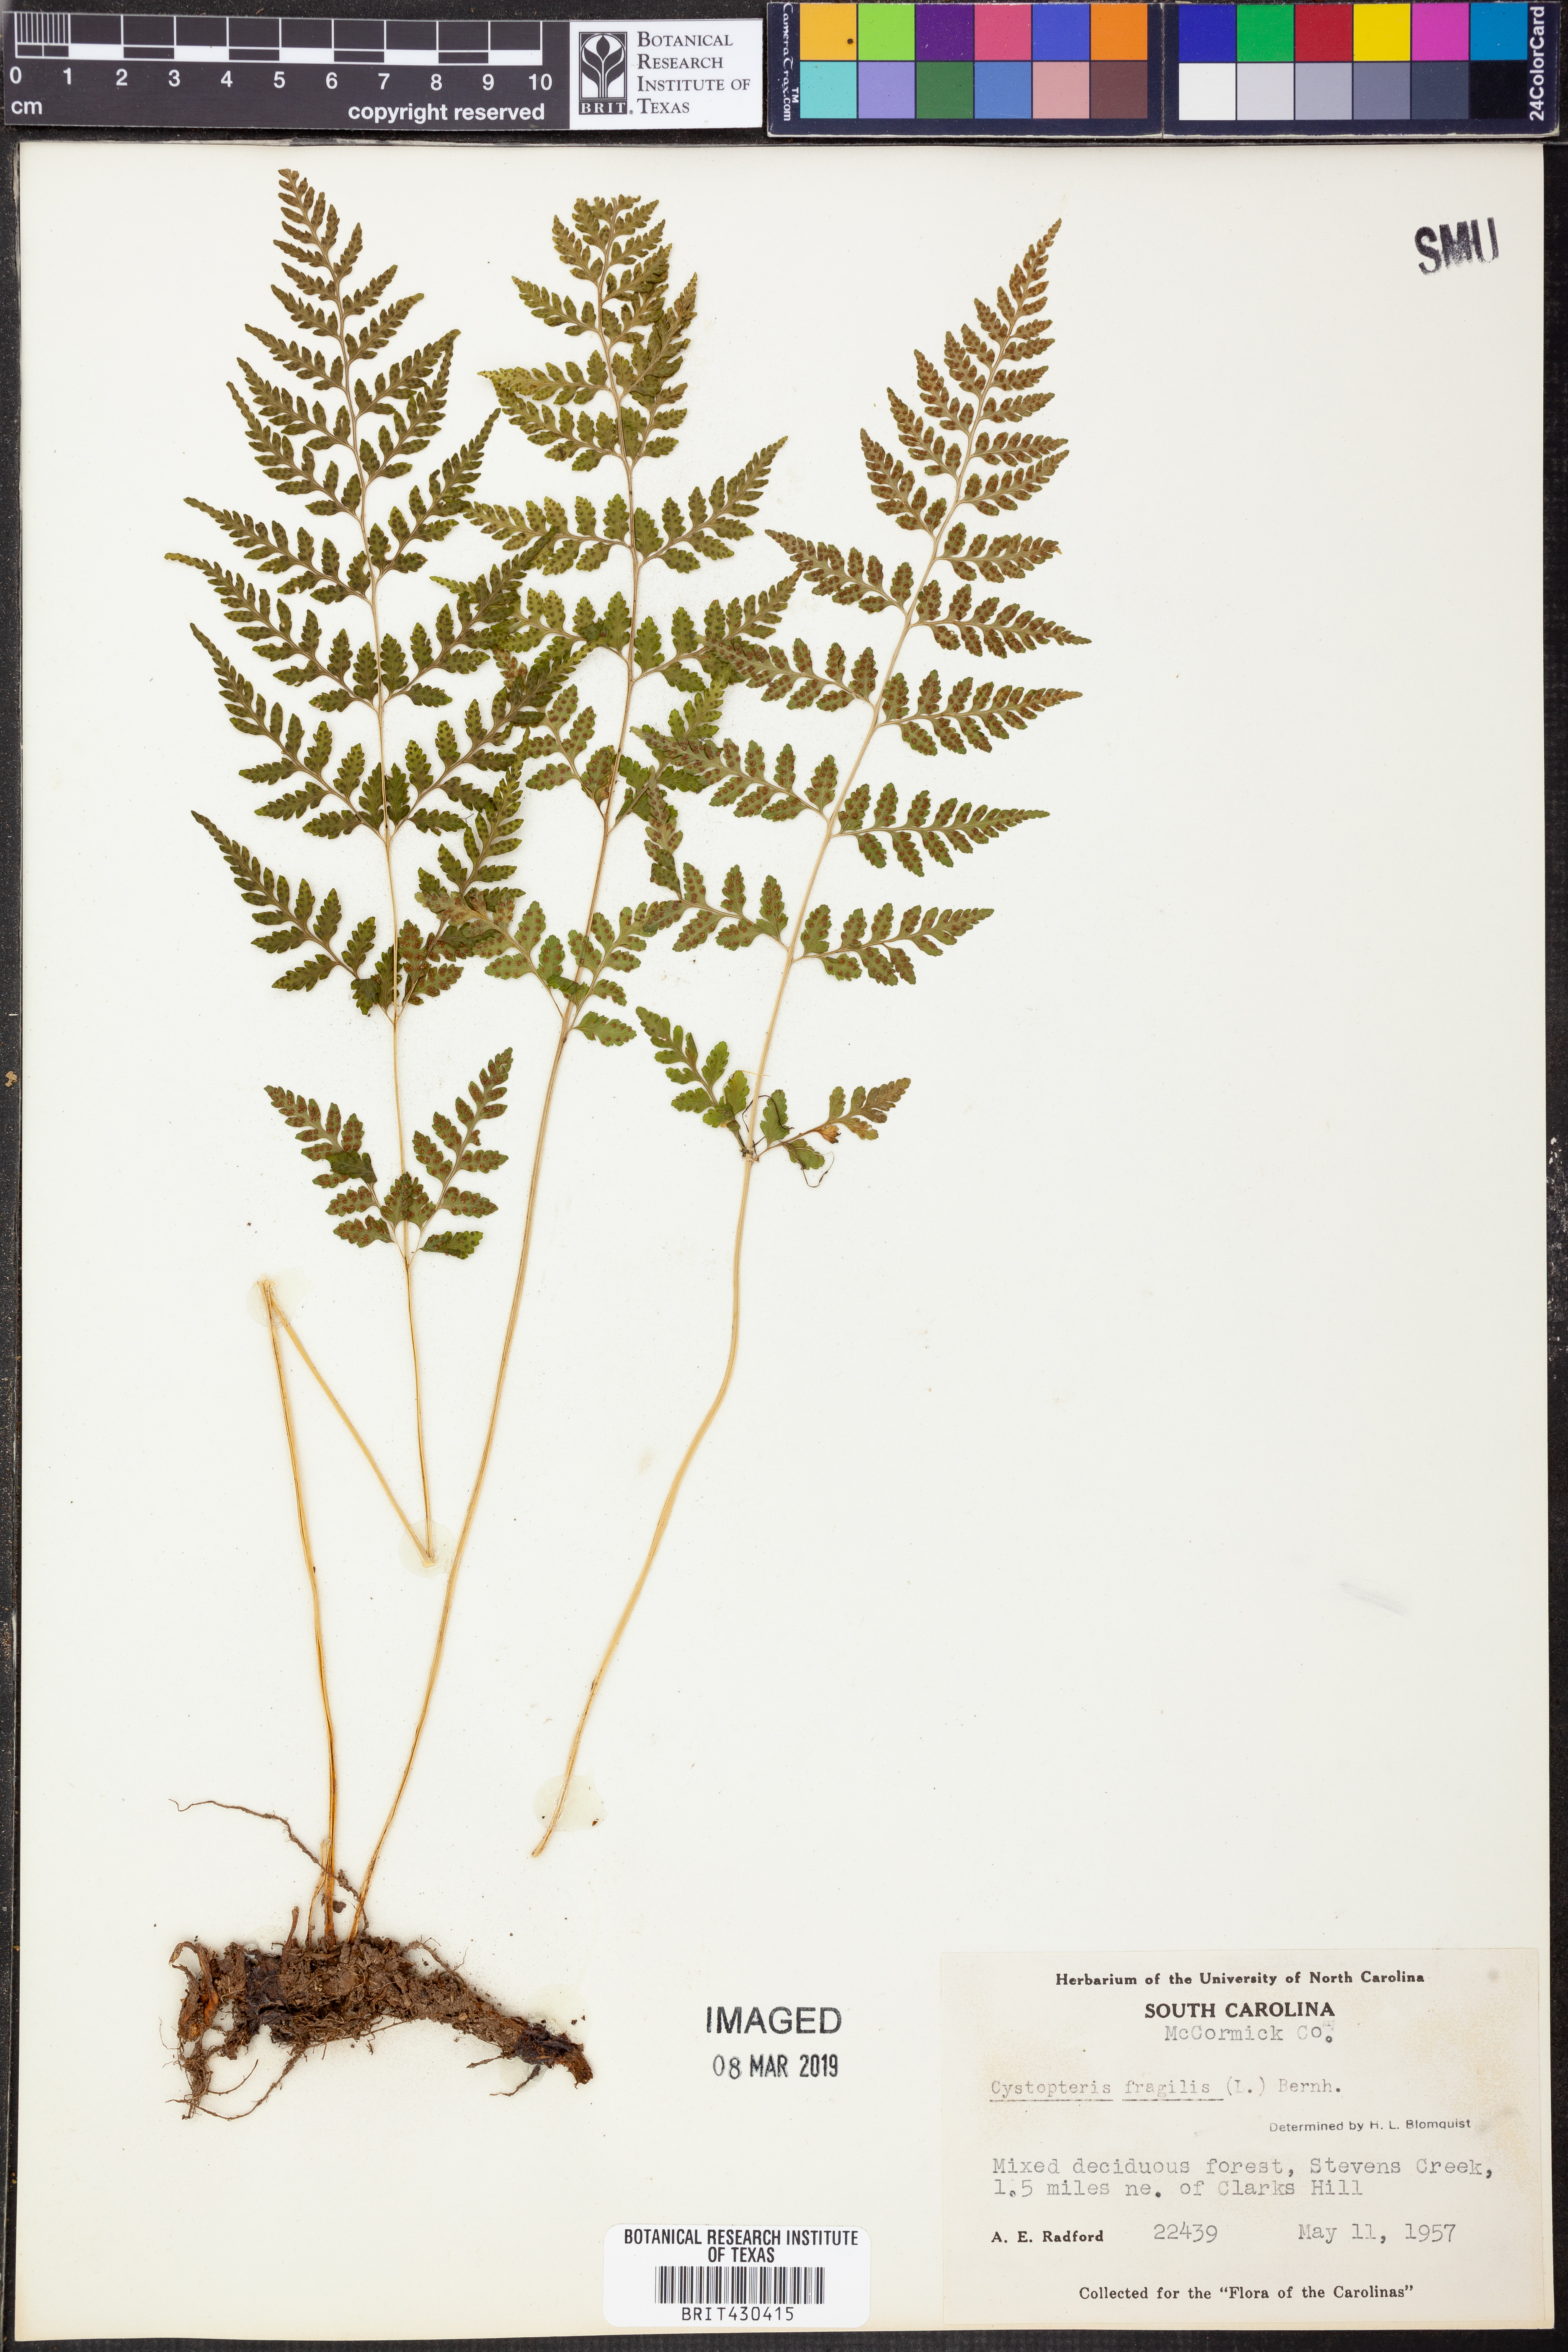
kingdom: Plantae
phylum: Tracheophyta
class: Polypodiopsida
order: Polypodiales
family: Cystopteridaceae
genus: Cystopteris
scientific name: Cystopteris fragilis
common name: Brittle bladder fern
